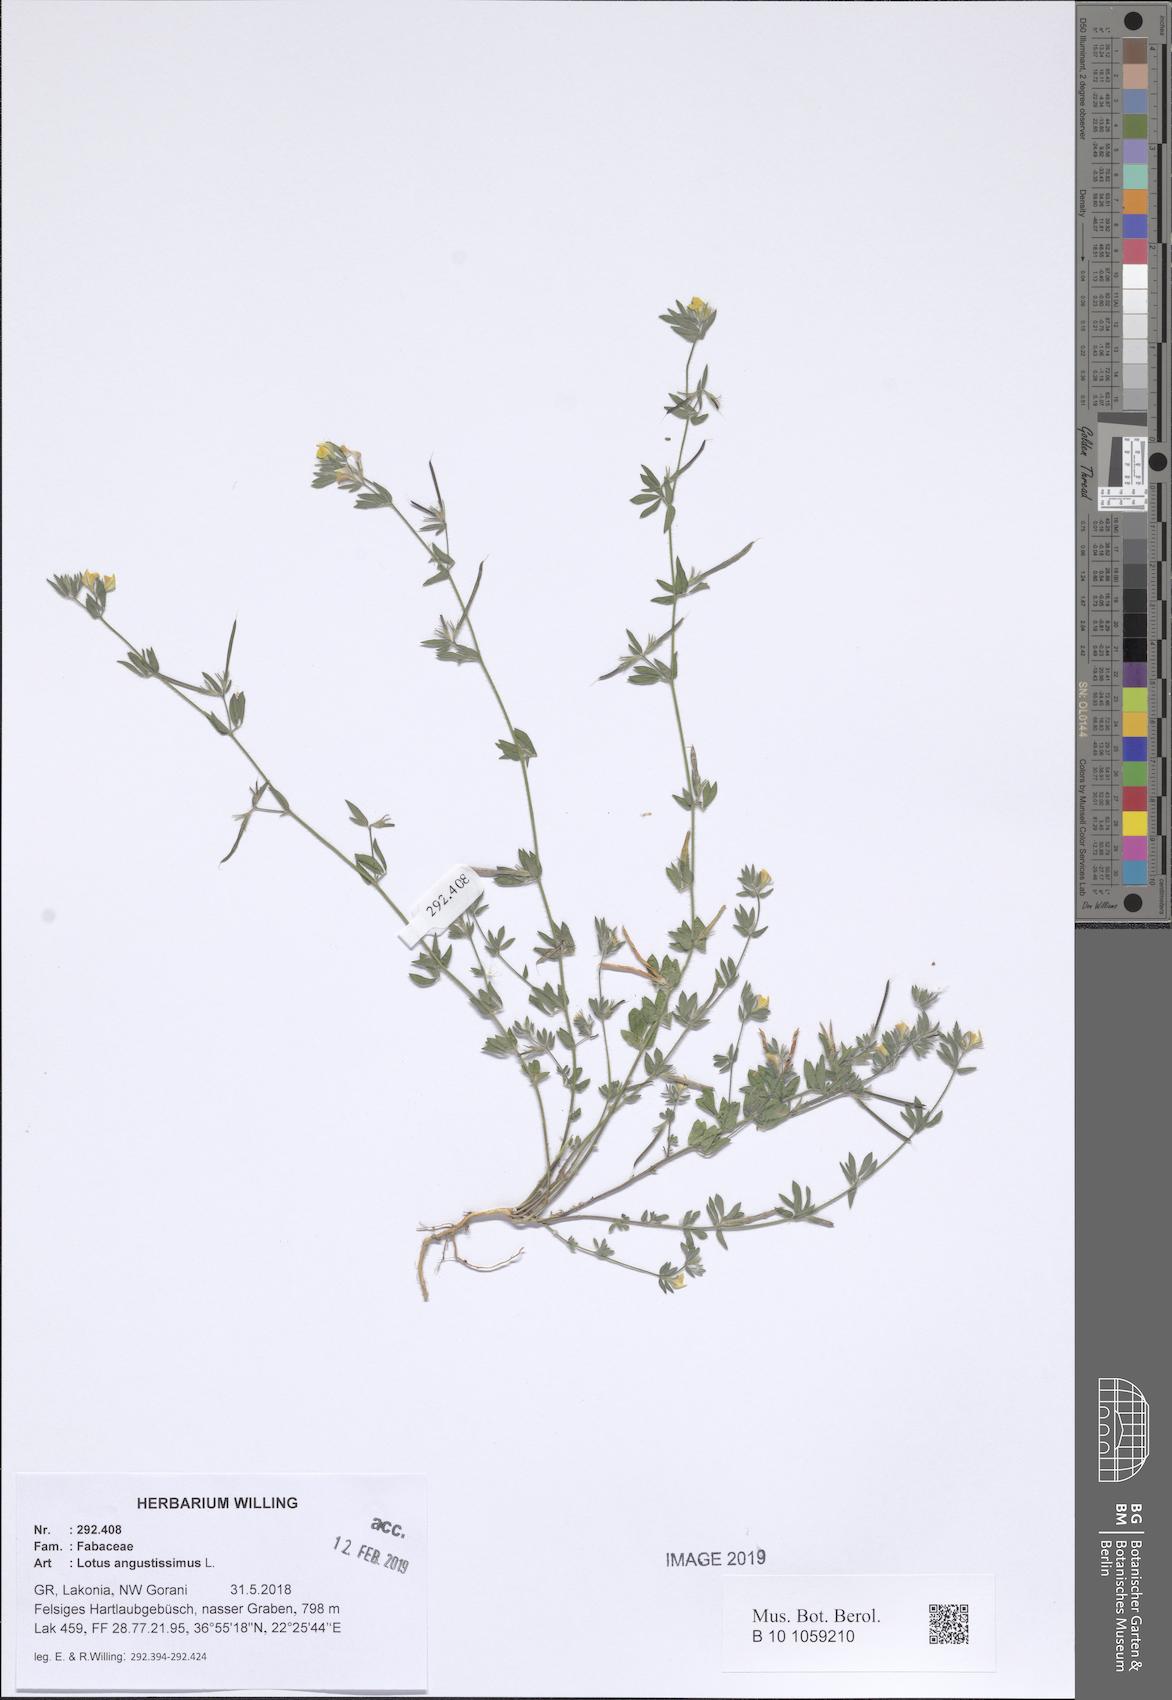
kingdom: Plantae
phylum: Tracheophyta
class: Magnoliopsida
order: Fabales
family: Fabaceae
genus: Lotus
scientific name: Lotus angustissimus
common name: Slender bird's-foot trefoil
